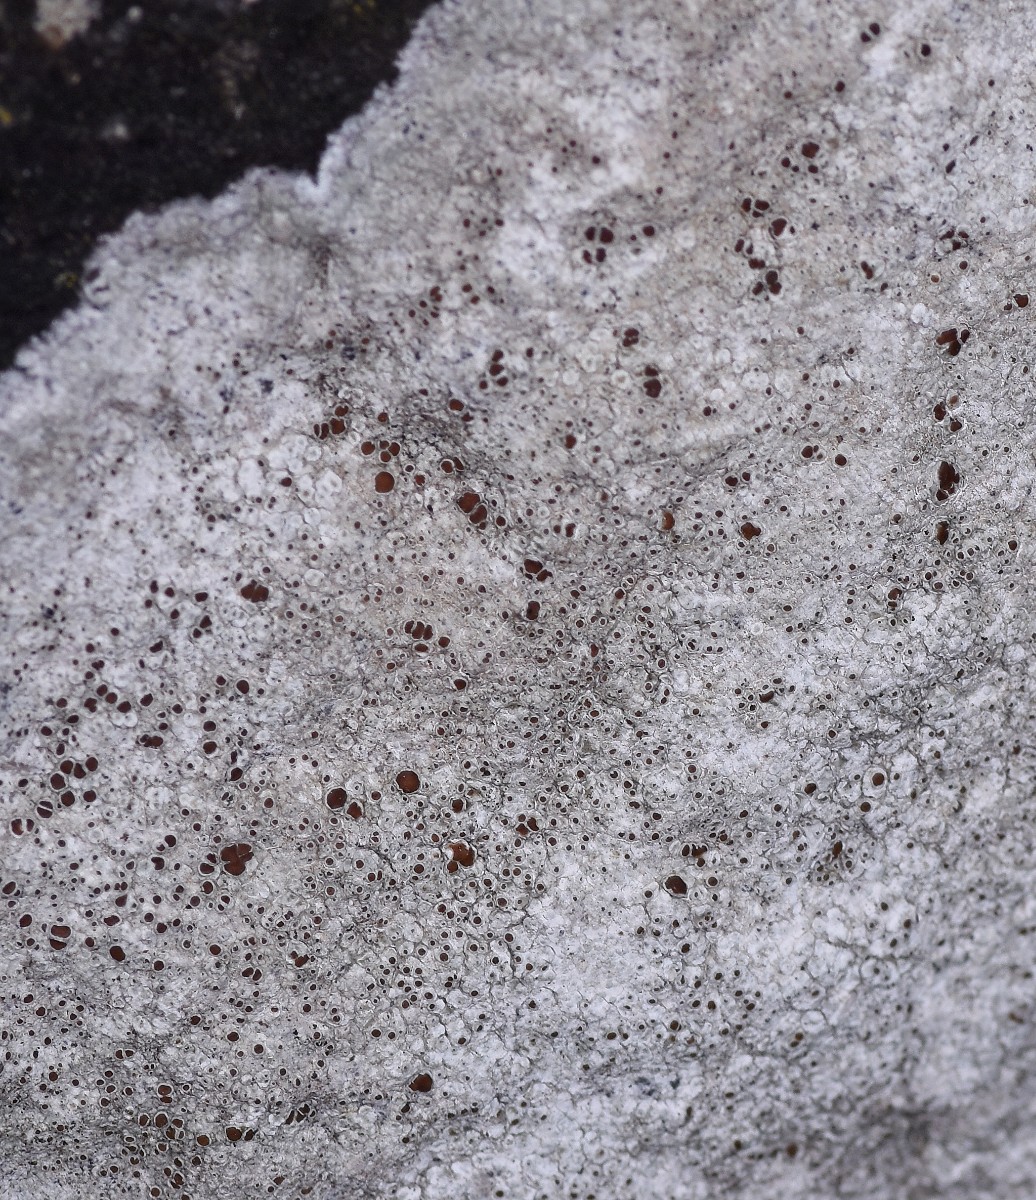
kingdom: Fungi
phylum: Ascomycota
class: Lecanoromycetes
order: Lecanorales
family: Lecanoraceae
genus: Lecanora
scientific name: Lecanora campestris
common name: mur-kantskivelav
